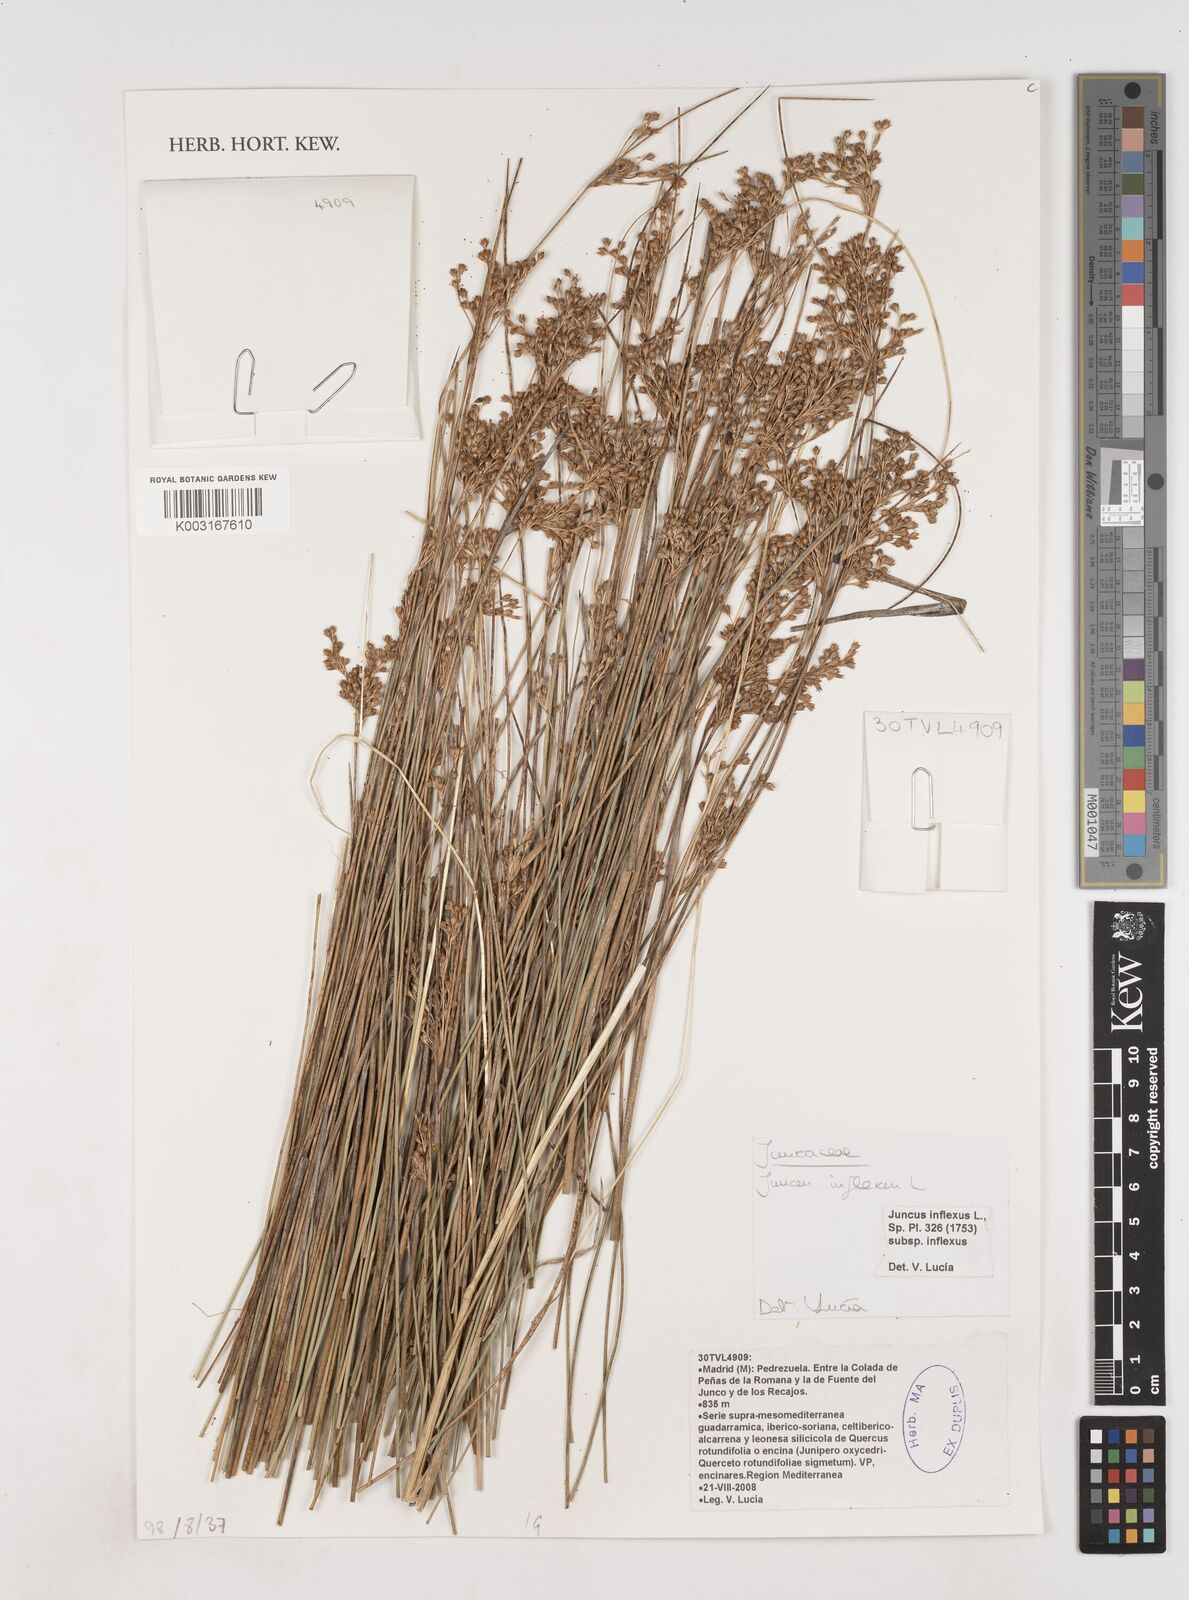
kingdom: Plantae
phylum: Tracheophyta
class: Liliopsida
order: Poales
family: Juncaceae
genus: Juncus
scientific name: Juncus inflexus
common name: Hard rush
